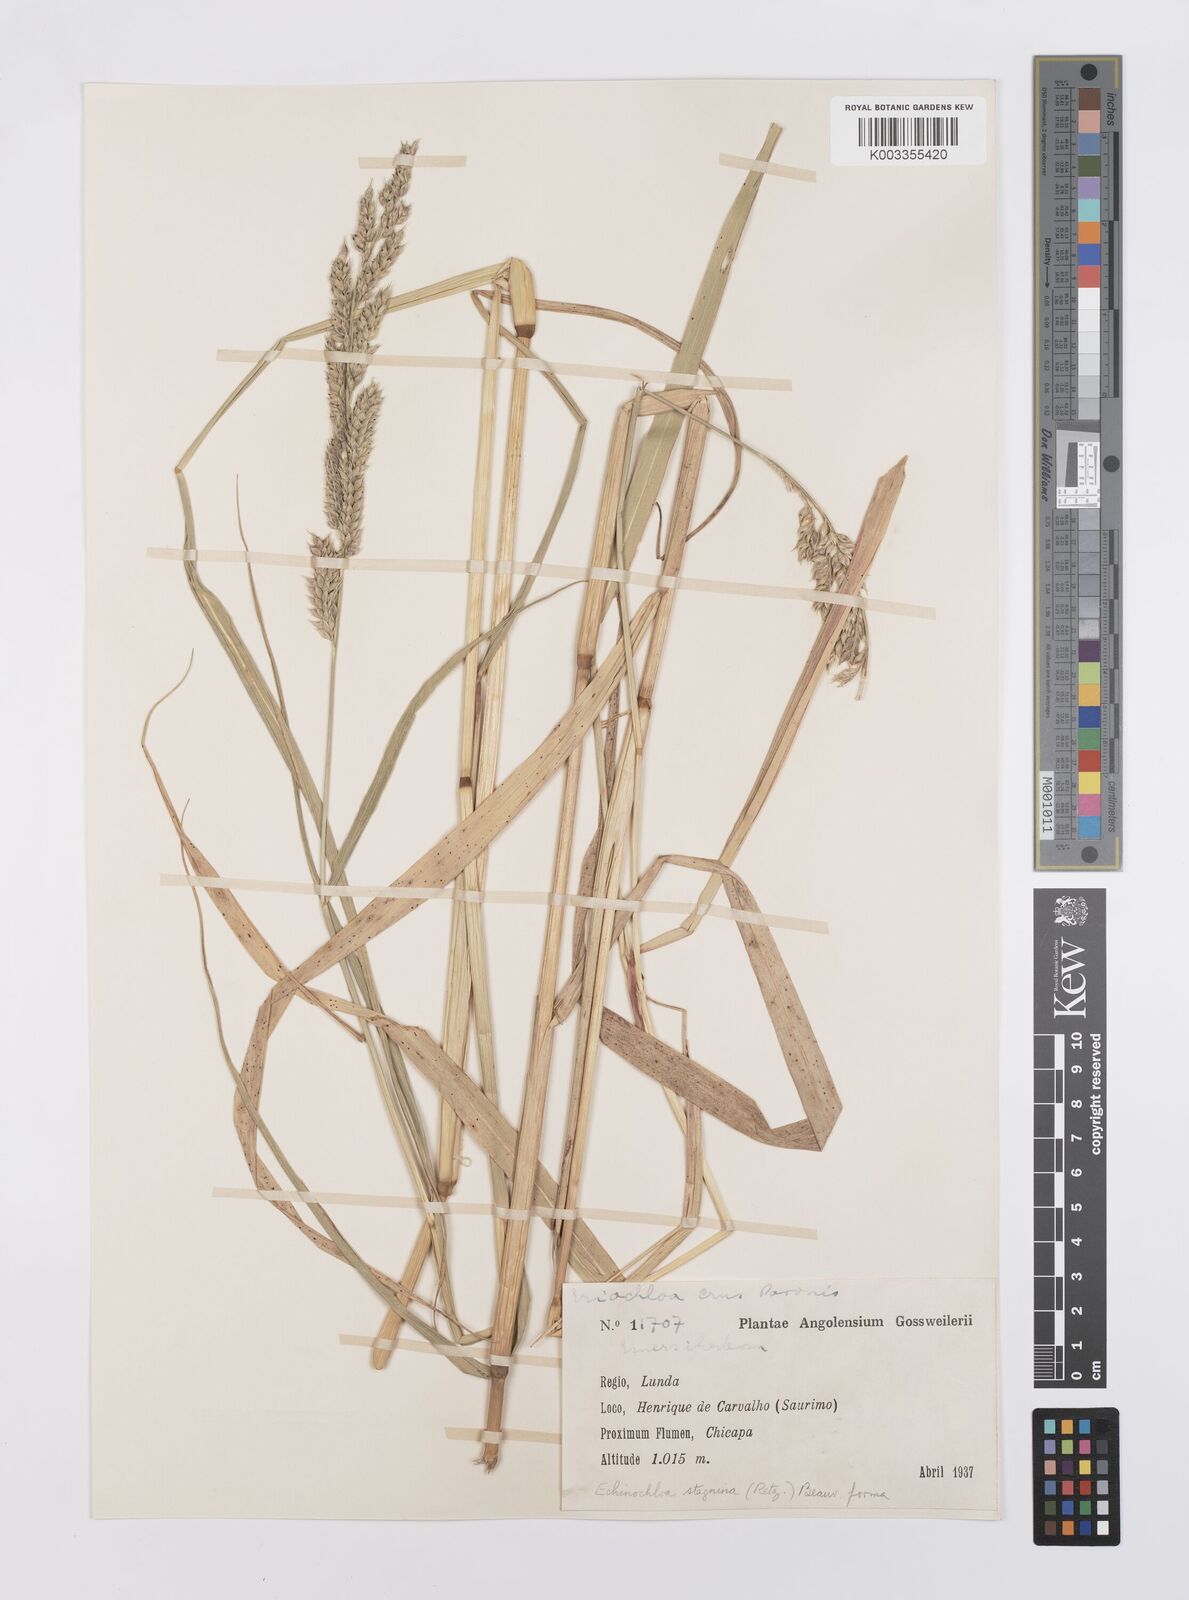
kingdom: Plantae
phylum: Tracheophyta
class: Liliopsida
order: Poales
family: Poaceae
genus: Echinochloa
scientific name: Echinochloa stagnina
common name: Burgu grass
